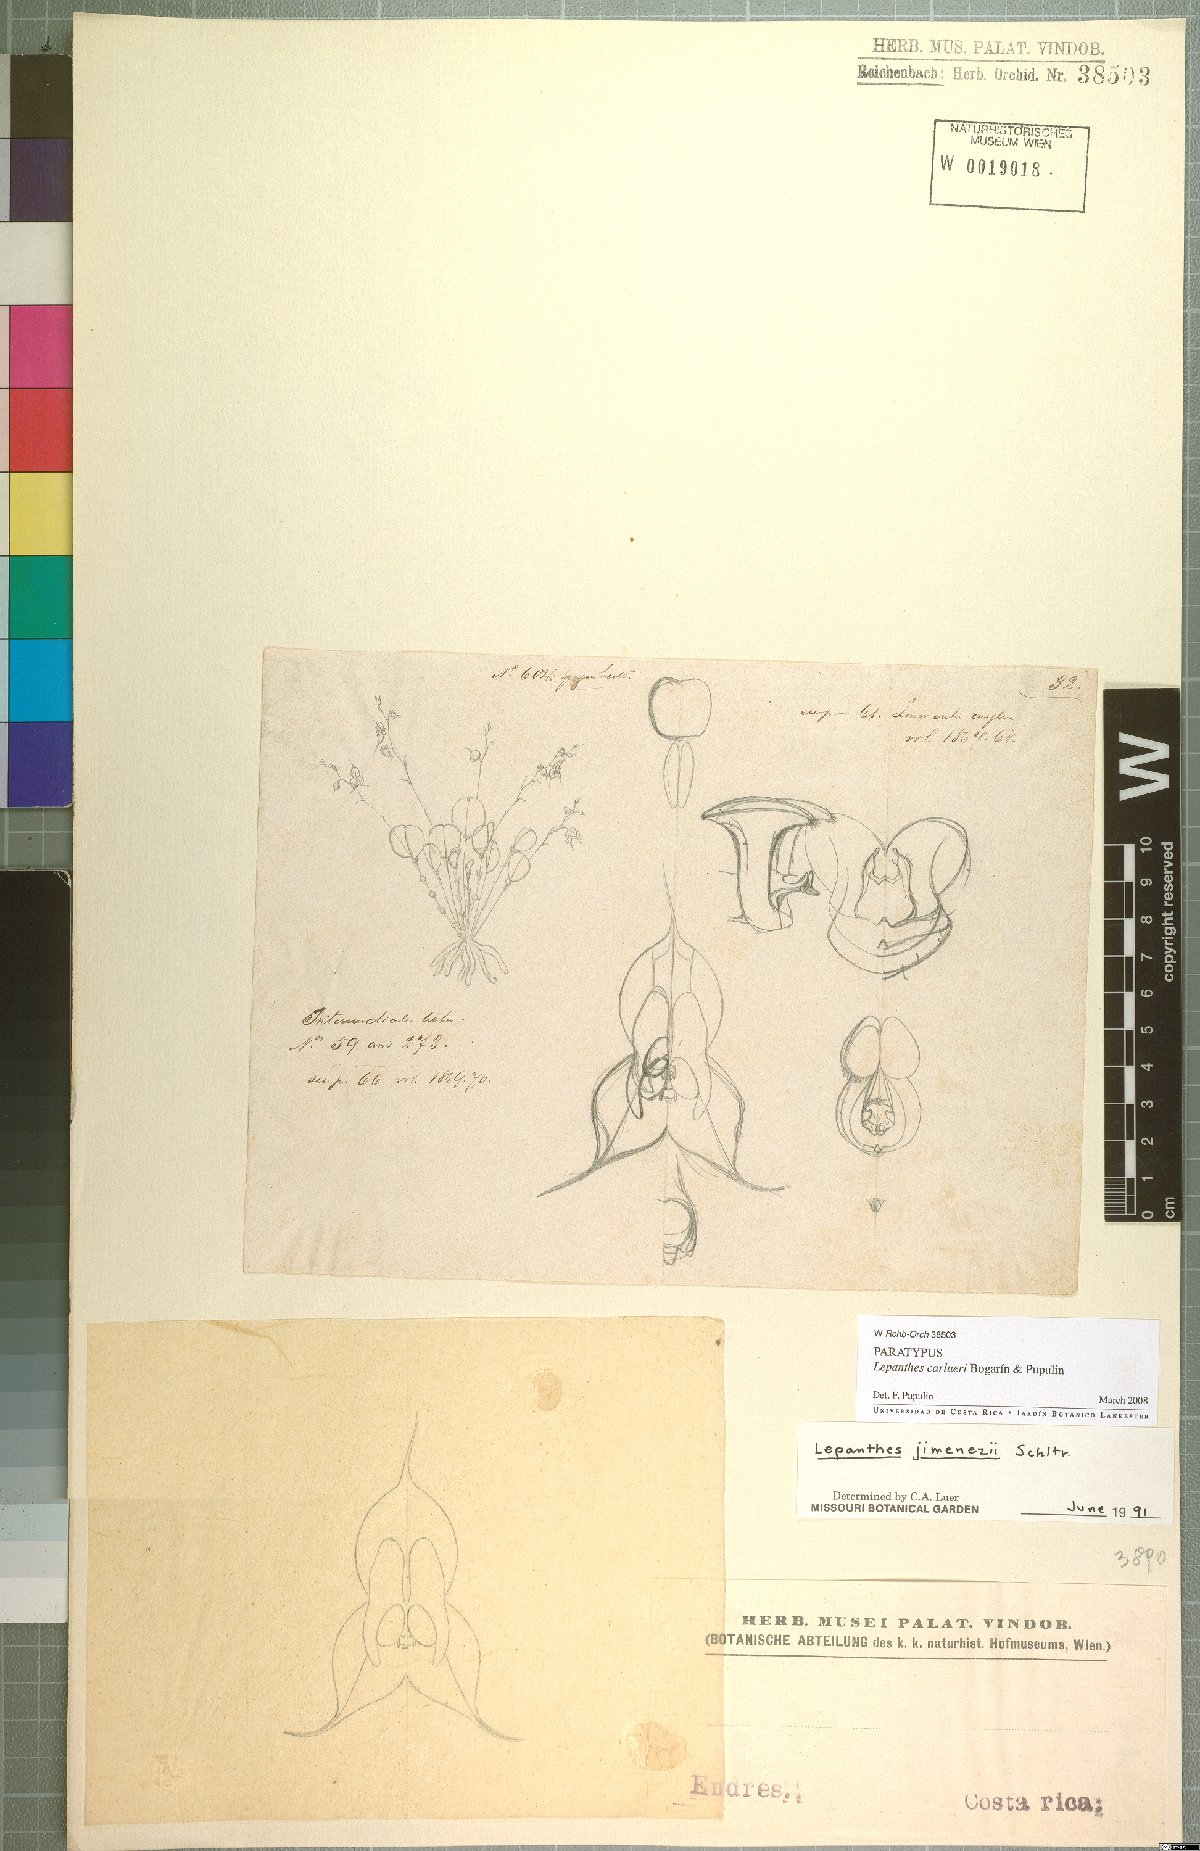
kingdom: Plantae
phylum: Tracheophyta
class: Liliopsida
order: Asparagales
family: Orchidaceae
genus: Lepanthes
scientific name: Lepanthes caroli-lueri
